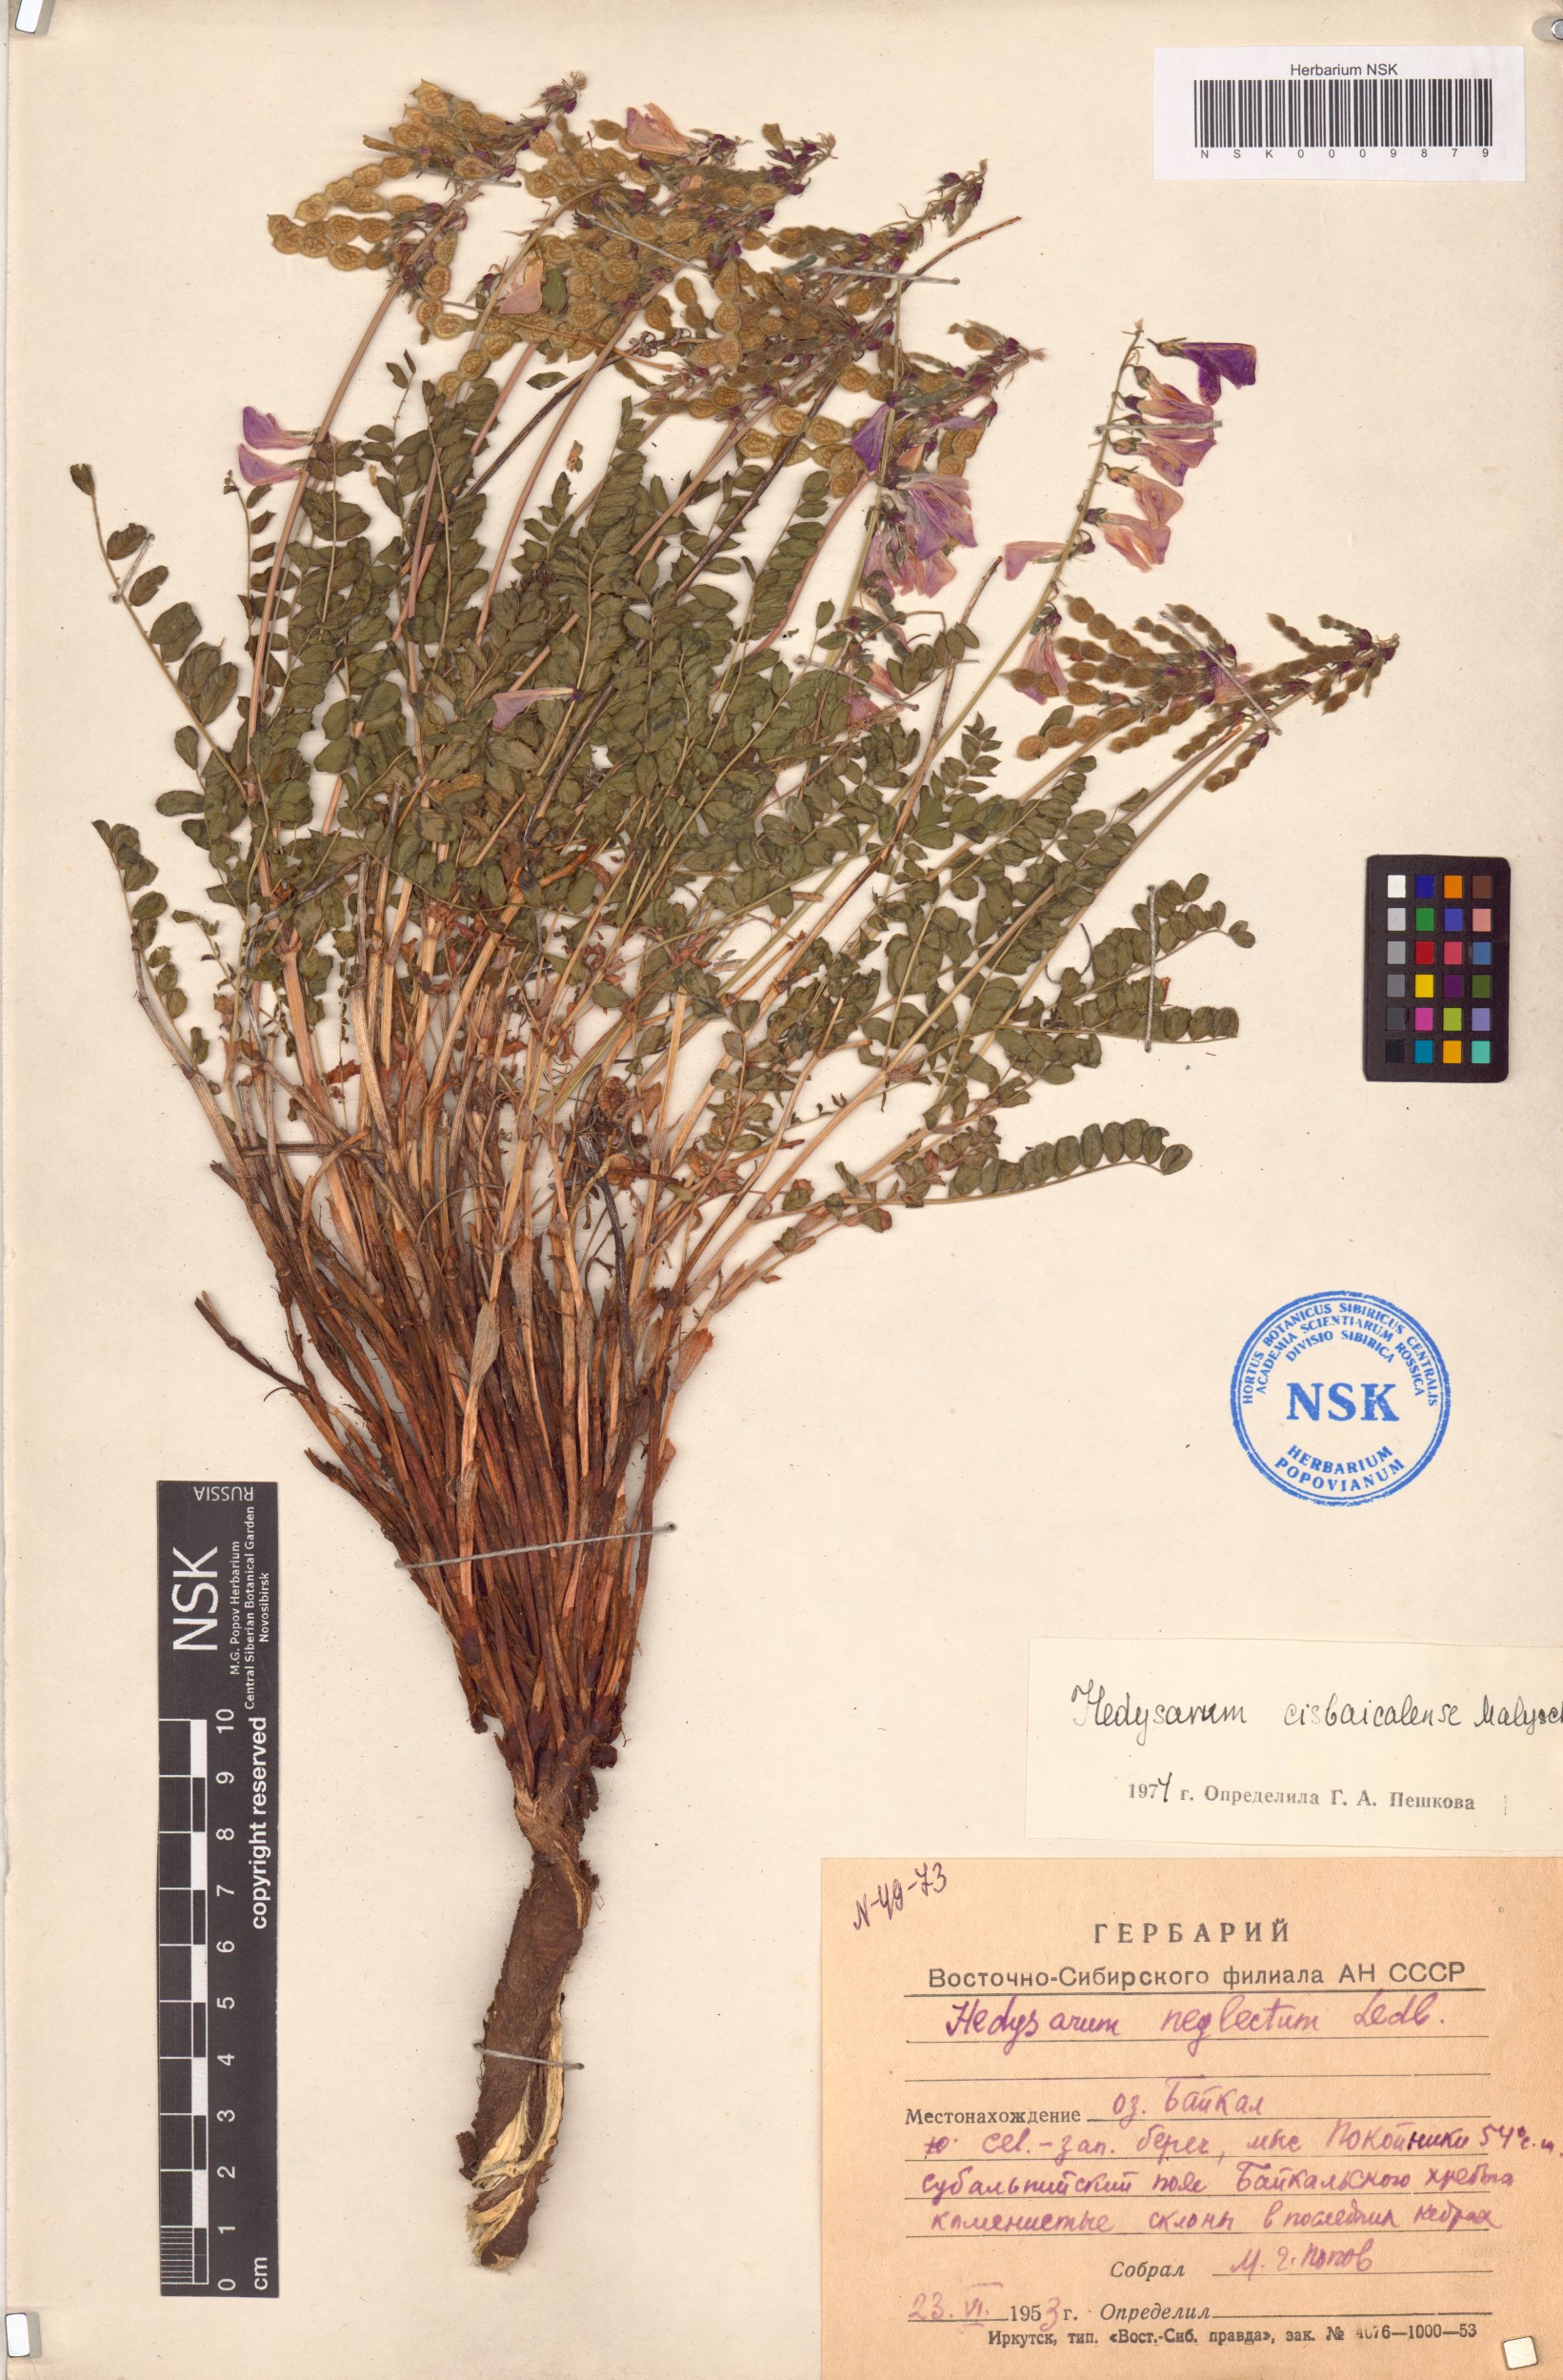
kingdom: Plantae
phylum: Tracheophyta
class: Magnoliopsida
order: Fabales
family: Fabaceae
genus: Hedysarum
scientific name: Hedysarum cisbaicalense
